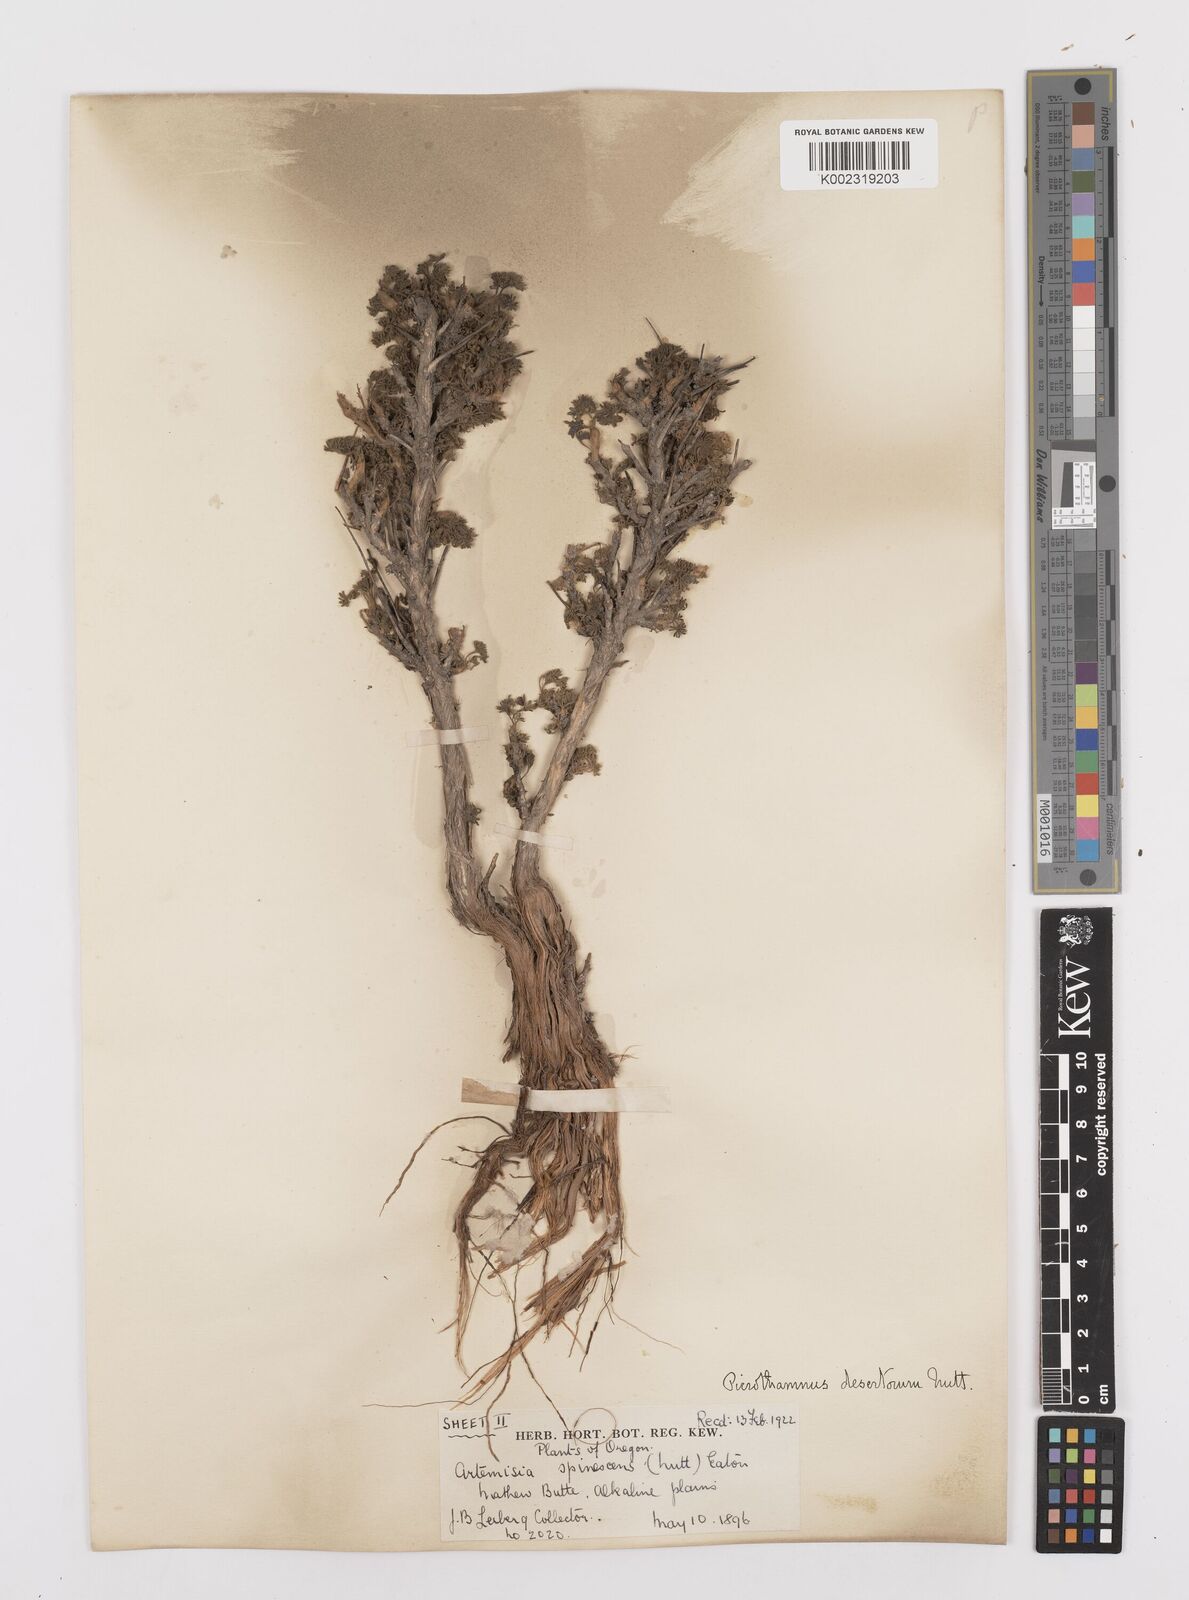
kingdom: Plantae
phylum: Tracheophyta
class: Magnoliopsida
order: Asterales
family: Asteraceae
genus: Artemisia
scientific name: Artemisia spinescens
